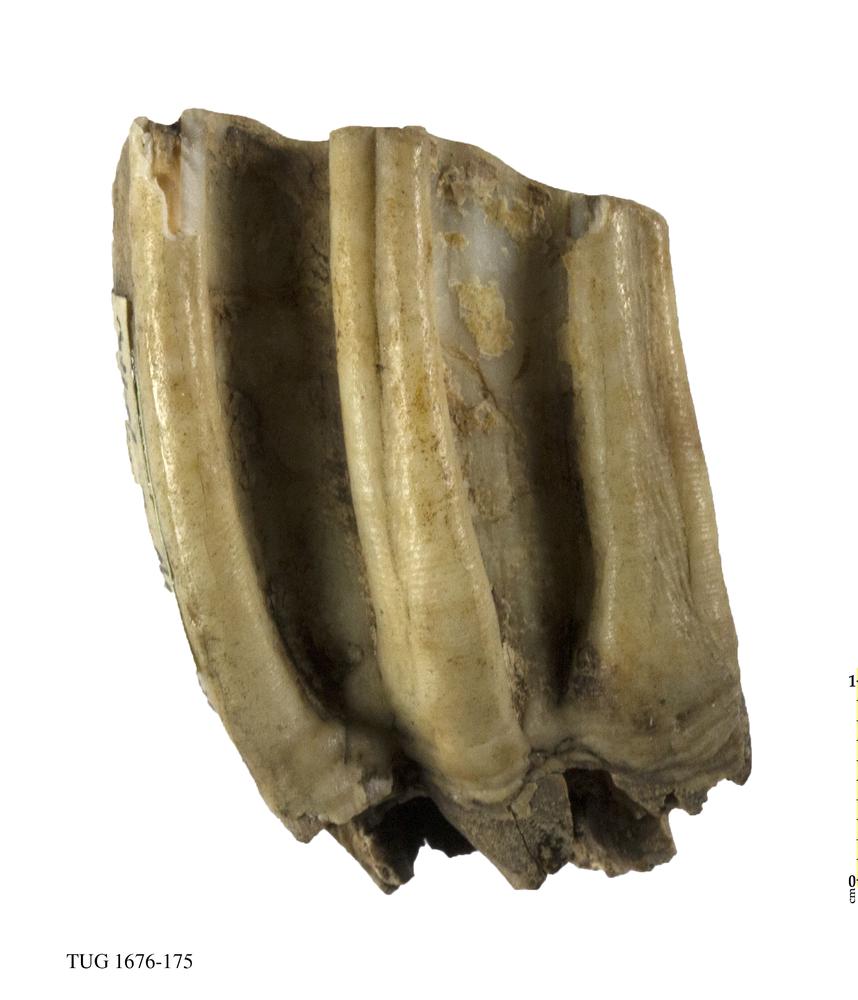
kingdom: Animalia
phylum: Chordata
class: Mammalia
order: Perissodactyla
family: Equidae
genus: Equus
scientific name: Equus ferus
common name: Russian wild horse
